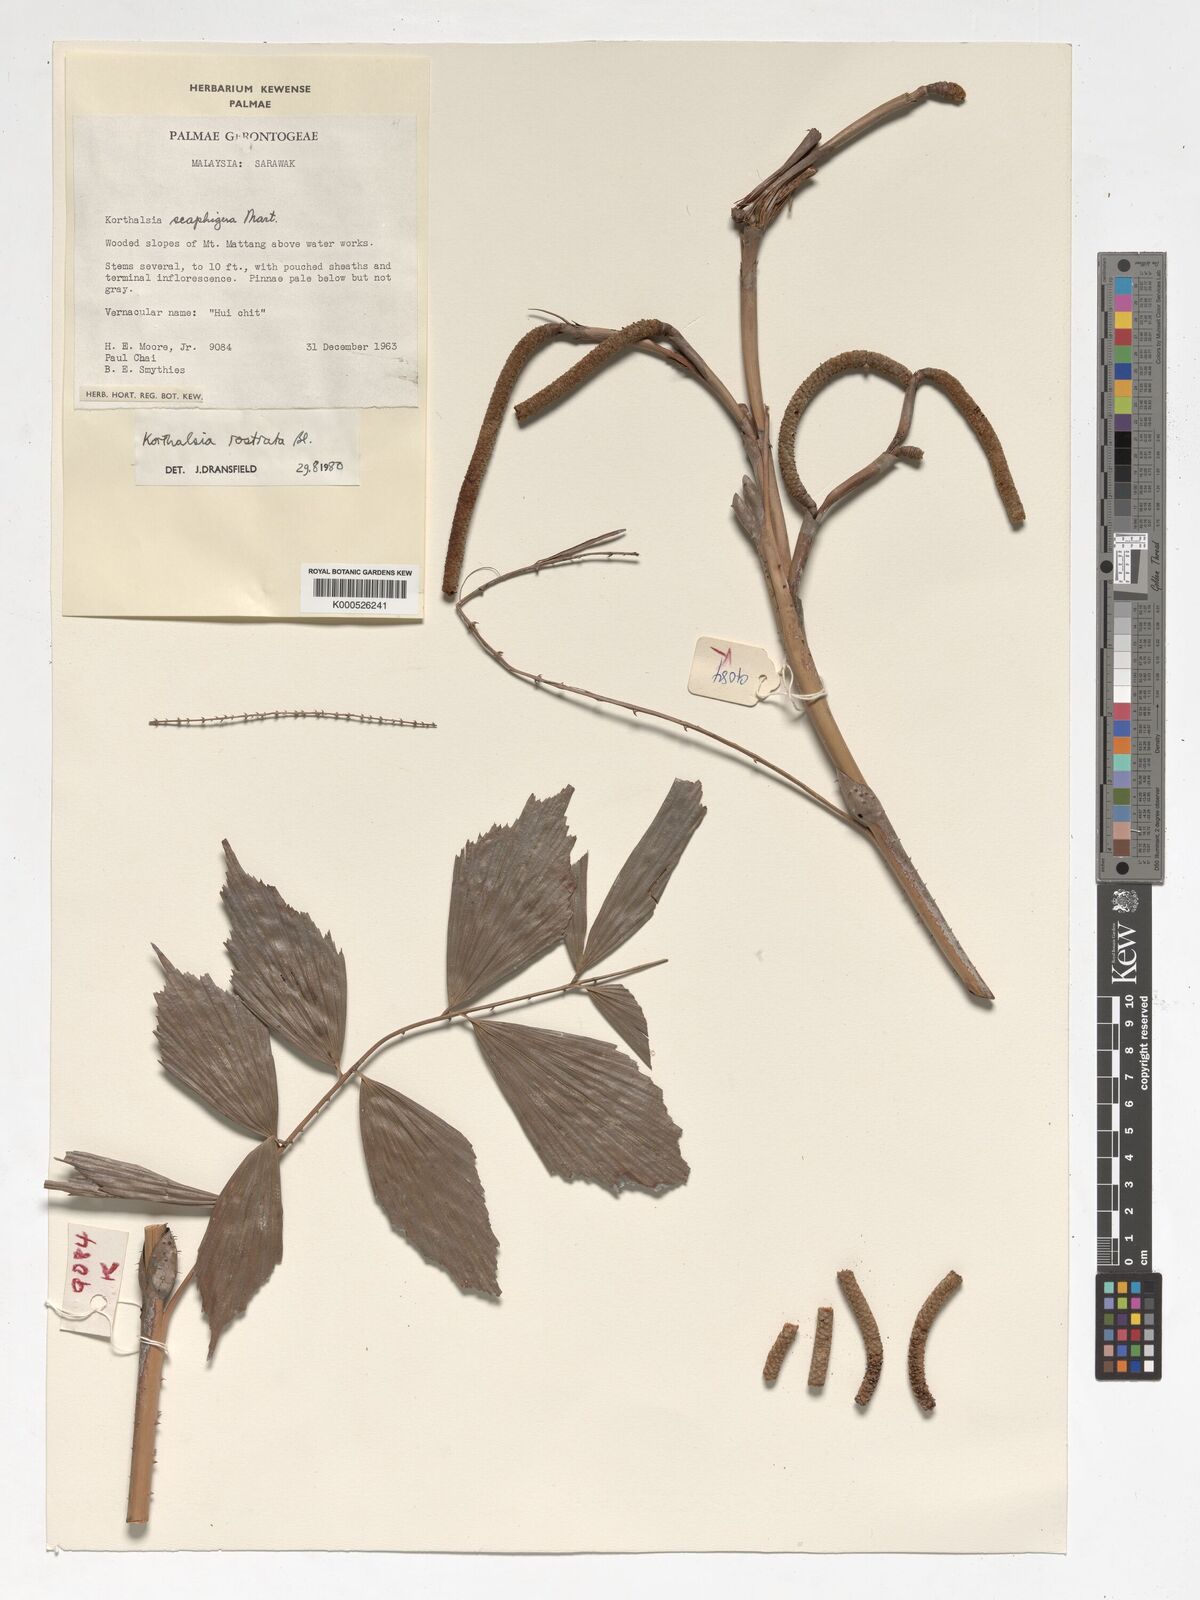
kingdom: Plantae
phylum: Tracheophyta
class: Liliopsida
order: Arecales
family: Arecaceae
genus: Korthalsia
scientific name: Korthalsia rostrata
